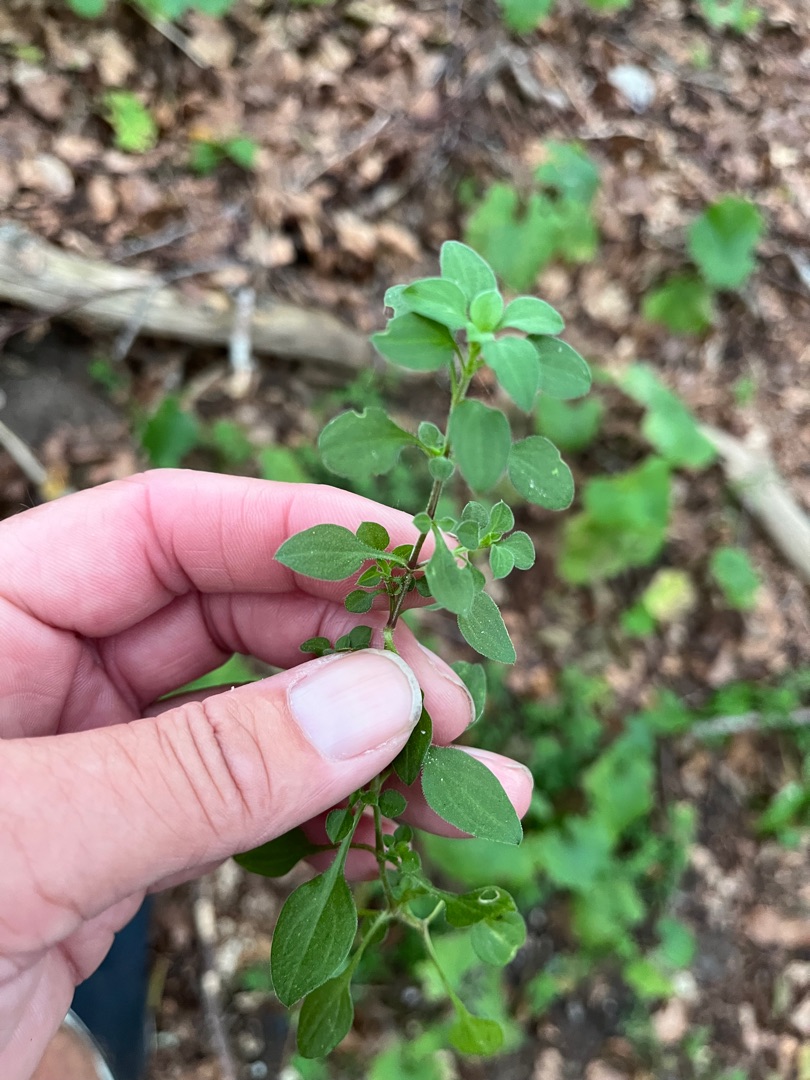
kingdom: Plantae
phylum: Tracheophyta
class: Magnoliopsida
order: Caryophyllales
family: Caryophyllaceae
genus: Moehringia
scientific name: Moehringia trinervia
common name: Skovarve
